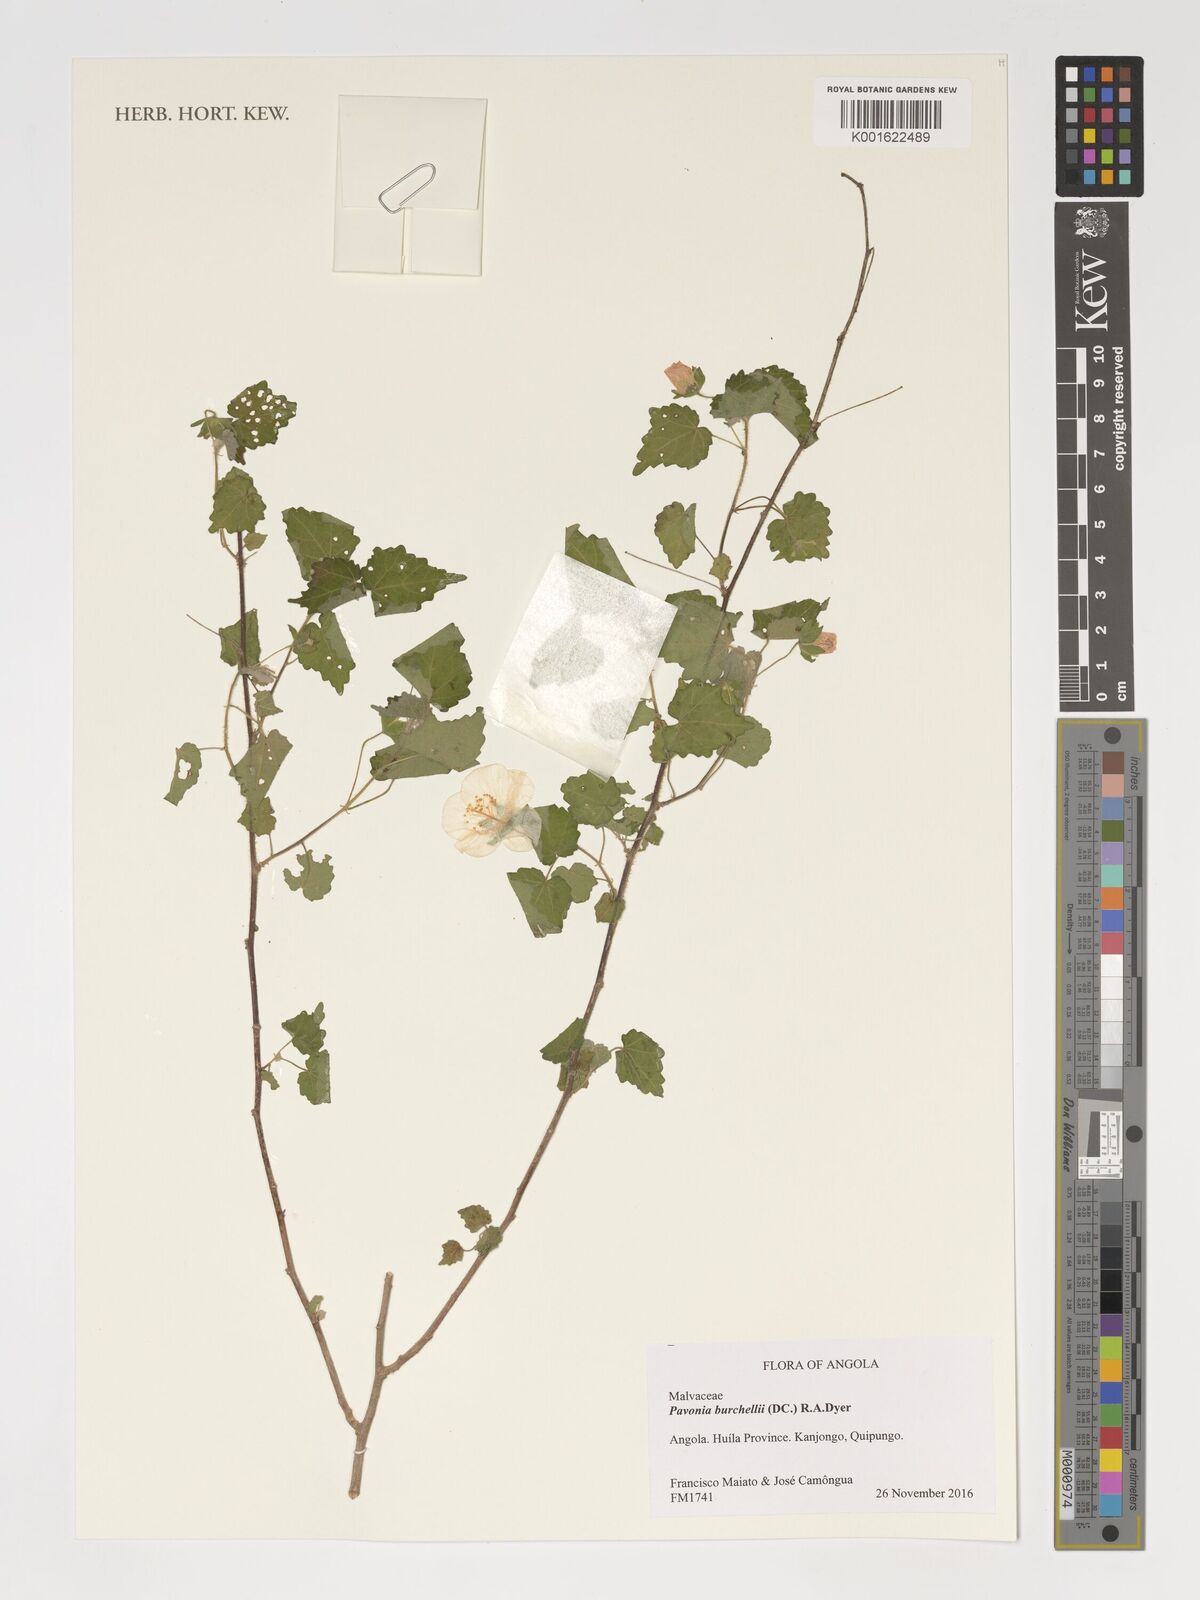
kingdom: Plantae
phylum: Tracheophyta
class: Magnoliopsida
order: Malvales
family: Malvaceae
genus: Pavonia
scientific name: Pavonia burchellii
